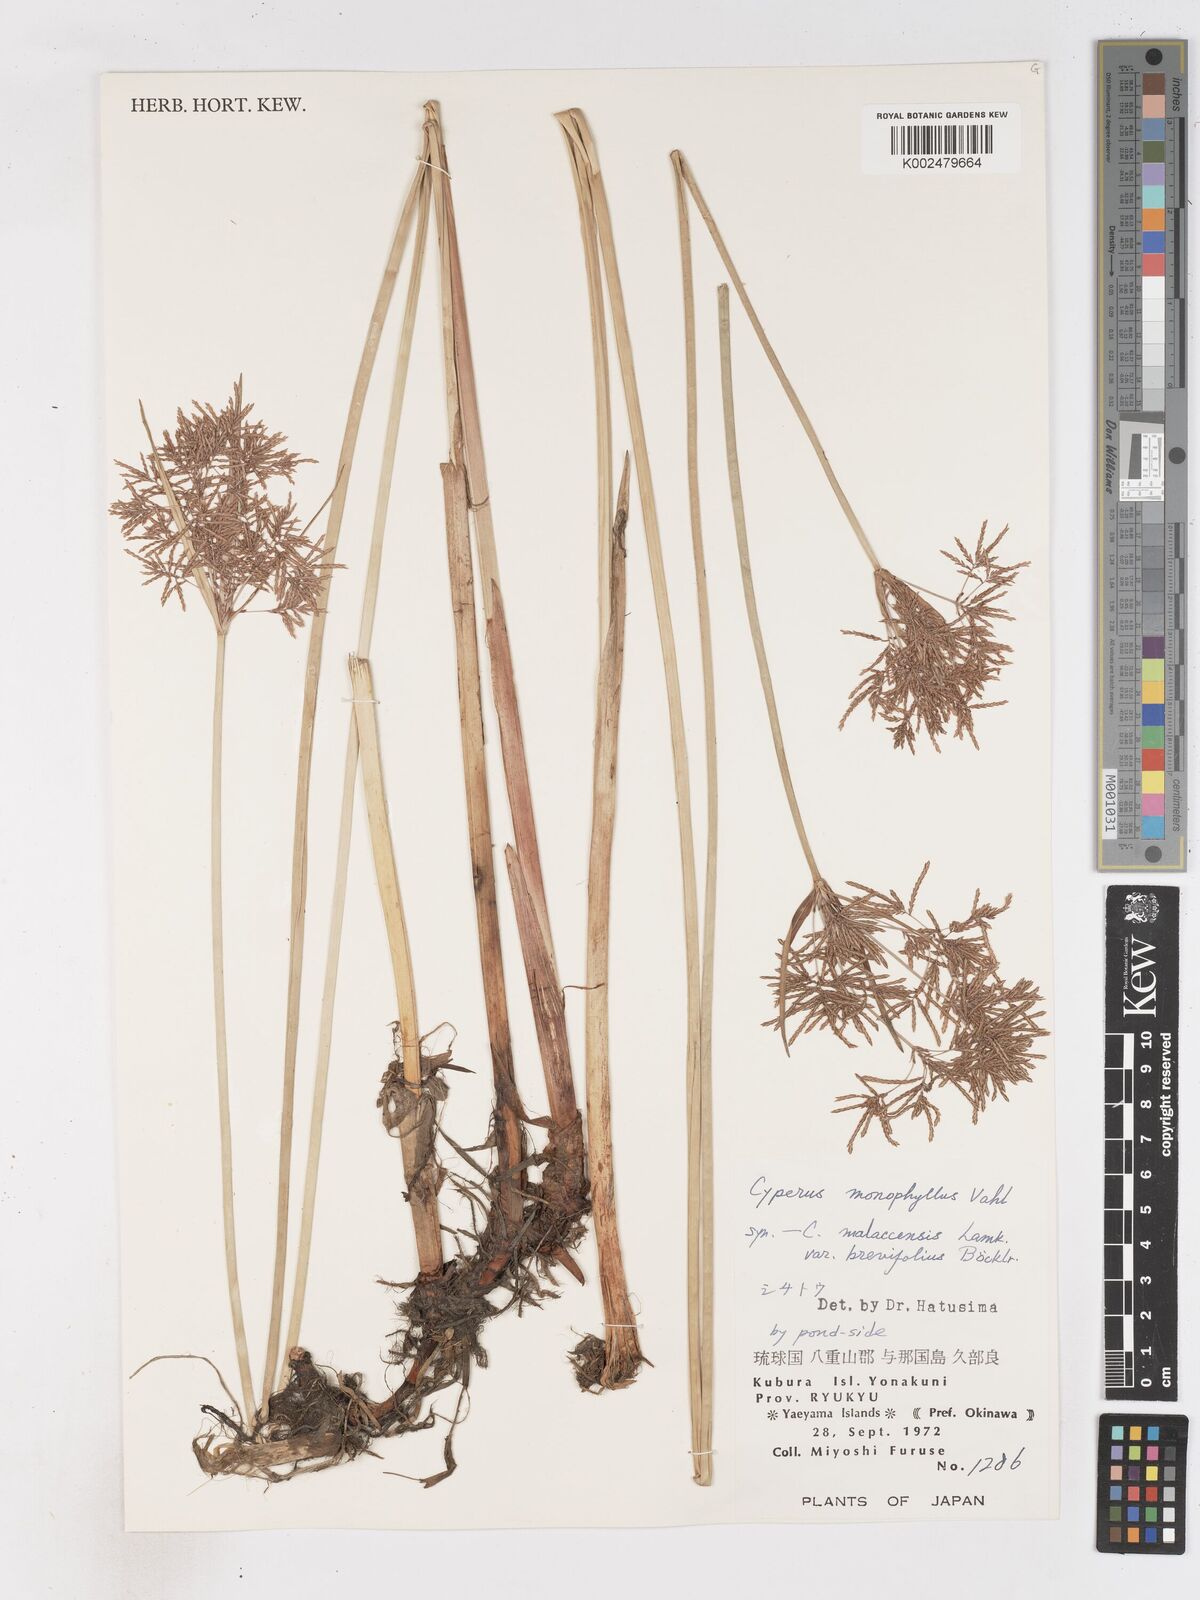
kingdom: Plantae
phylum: Tracheophyta
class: Liliopsida
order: Poales
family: Cyperaceae
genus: Cyperus
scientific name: Cyperus malaccensis
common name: Shichito matgrass
